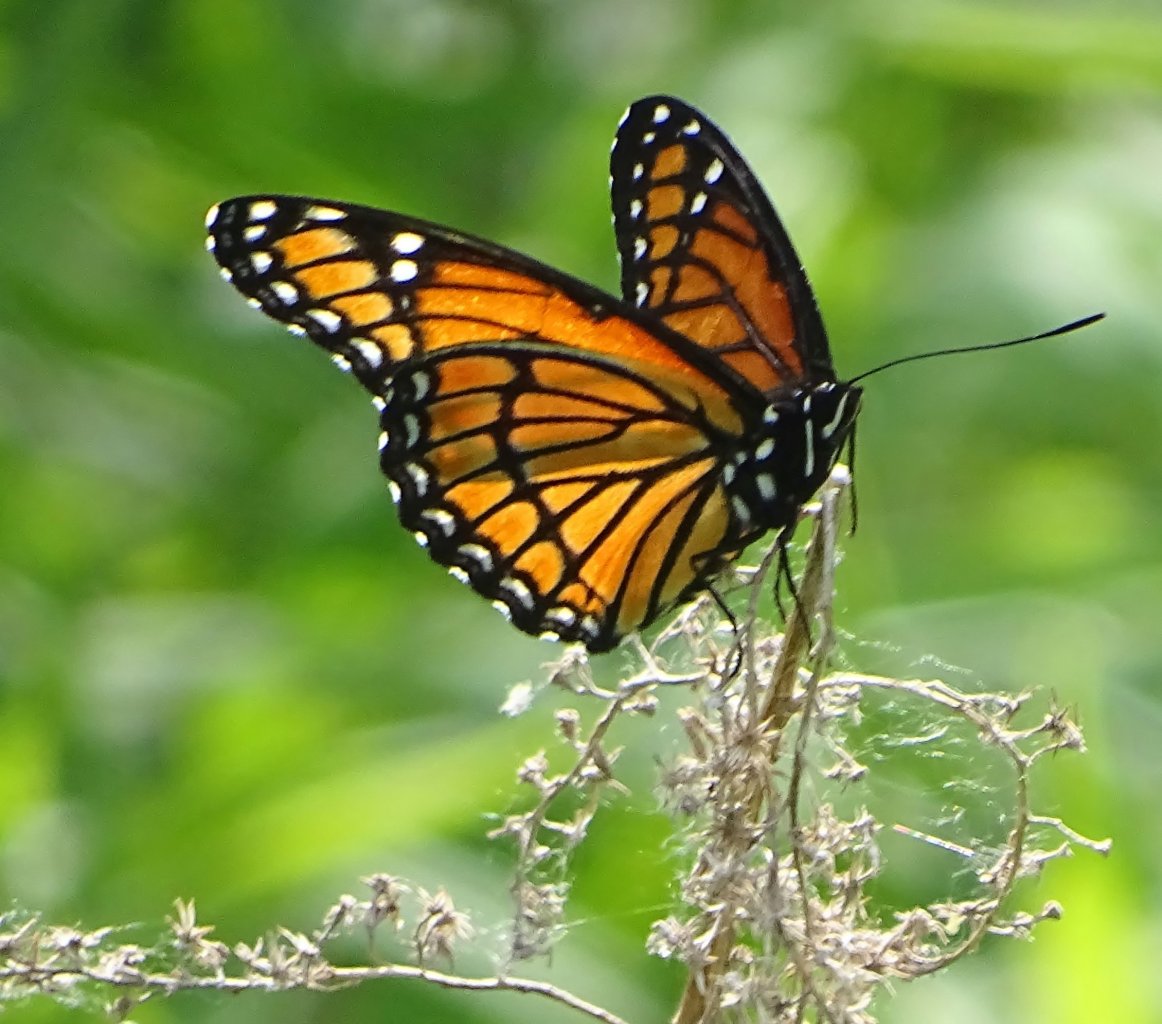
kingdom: Animalia
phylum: Arthropoda
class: Insecta
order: Lepidoptera
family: Nymphalidae
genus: Limenitis
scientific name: Limenitis archippus
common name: Viceroy
